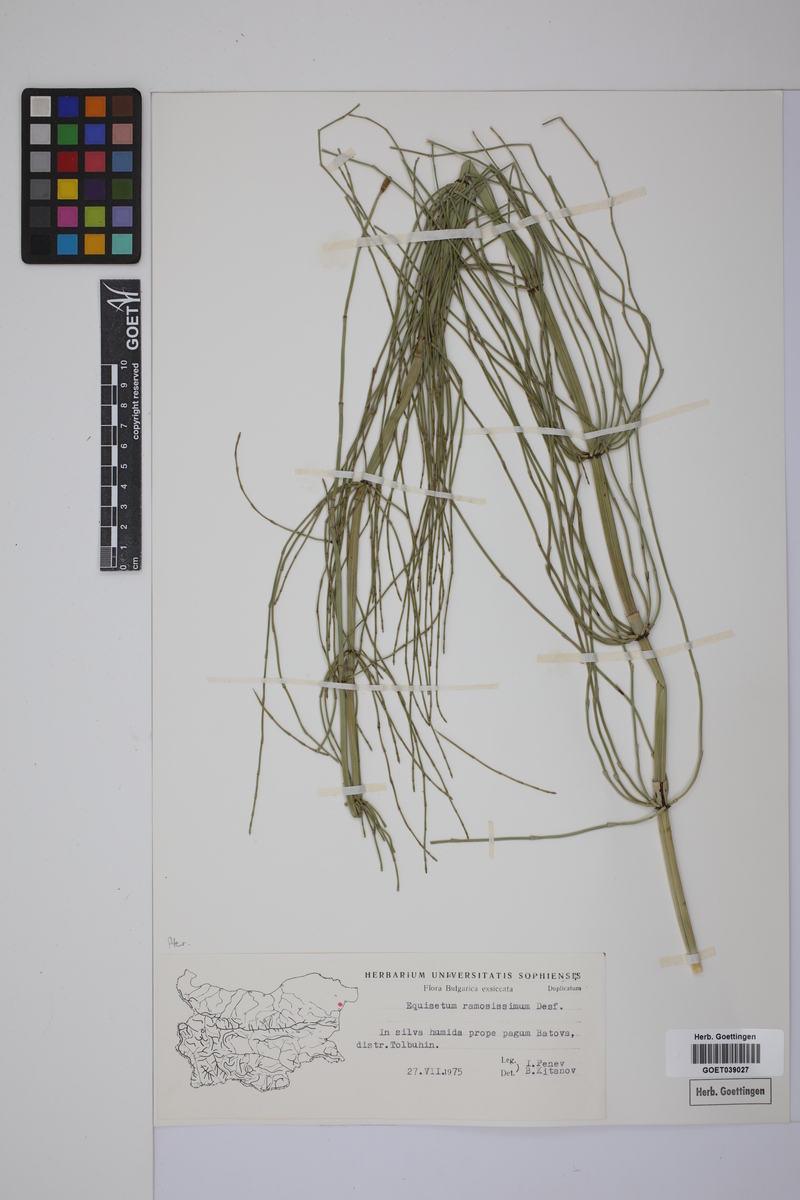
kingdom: Plantae
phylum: Tracheophyta
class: Polypodiopsida
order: Equisetales
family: Equisetaceae
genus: Equisetum
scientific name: Equisetum giganteum
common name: Giant horsetail
